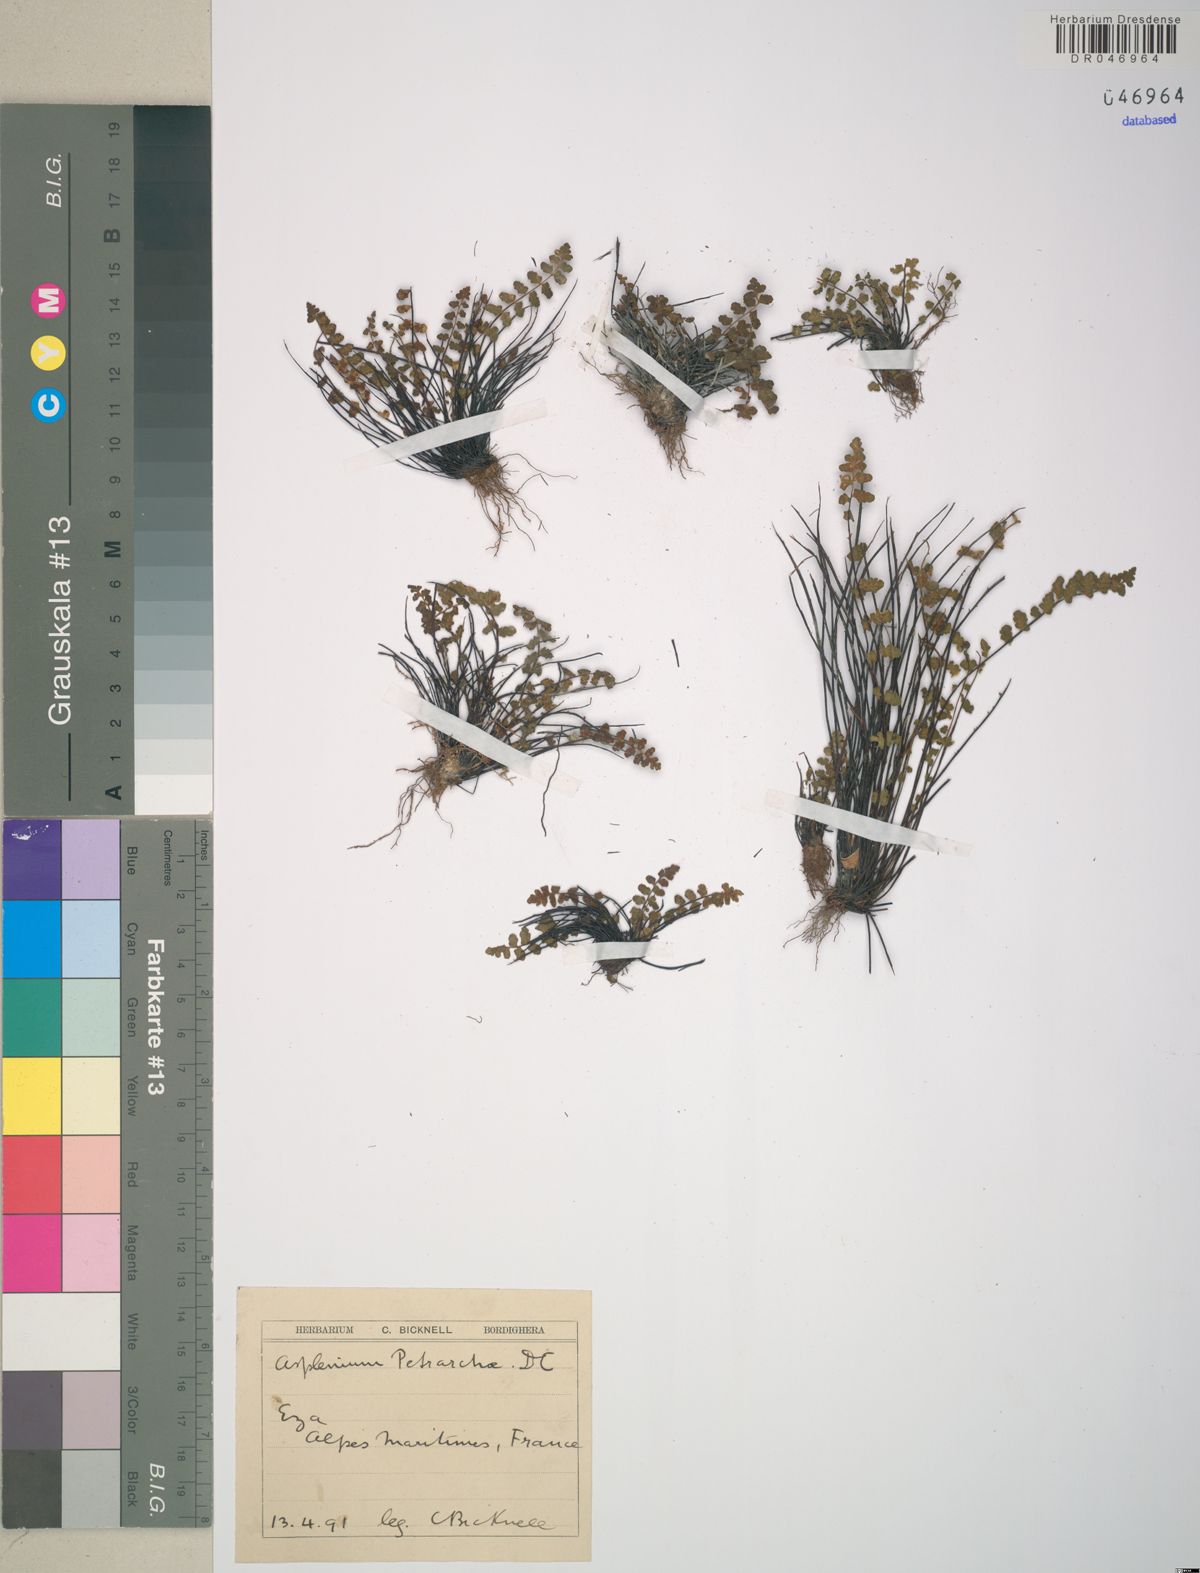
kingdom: Plantae
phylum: Tracheophyta
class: Polypodiopsida
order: Polypodiales
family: Aspleniaceae
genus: Asplenium
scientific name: Asplenium petrarchae
